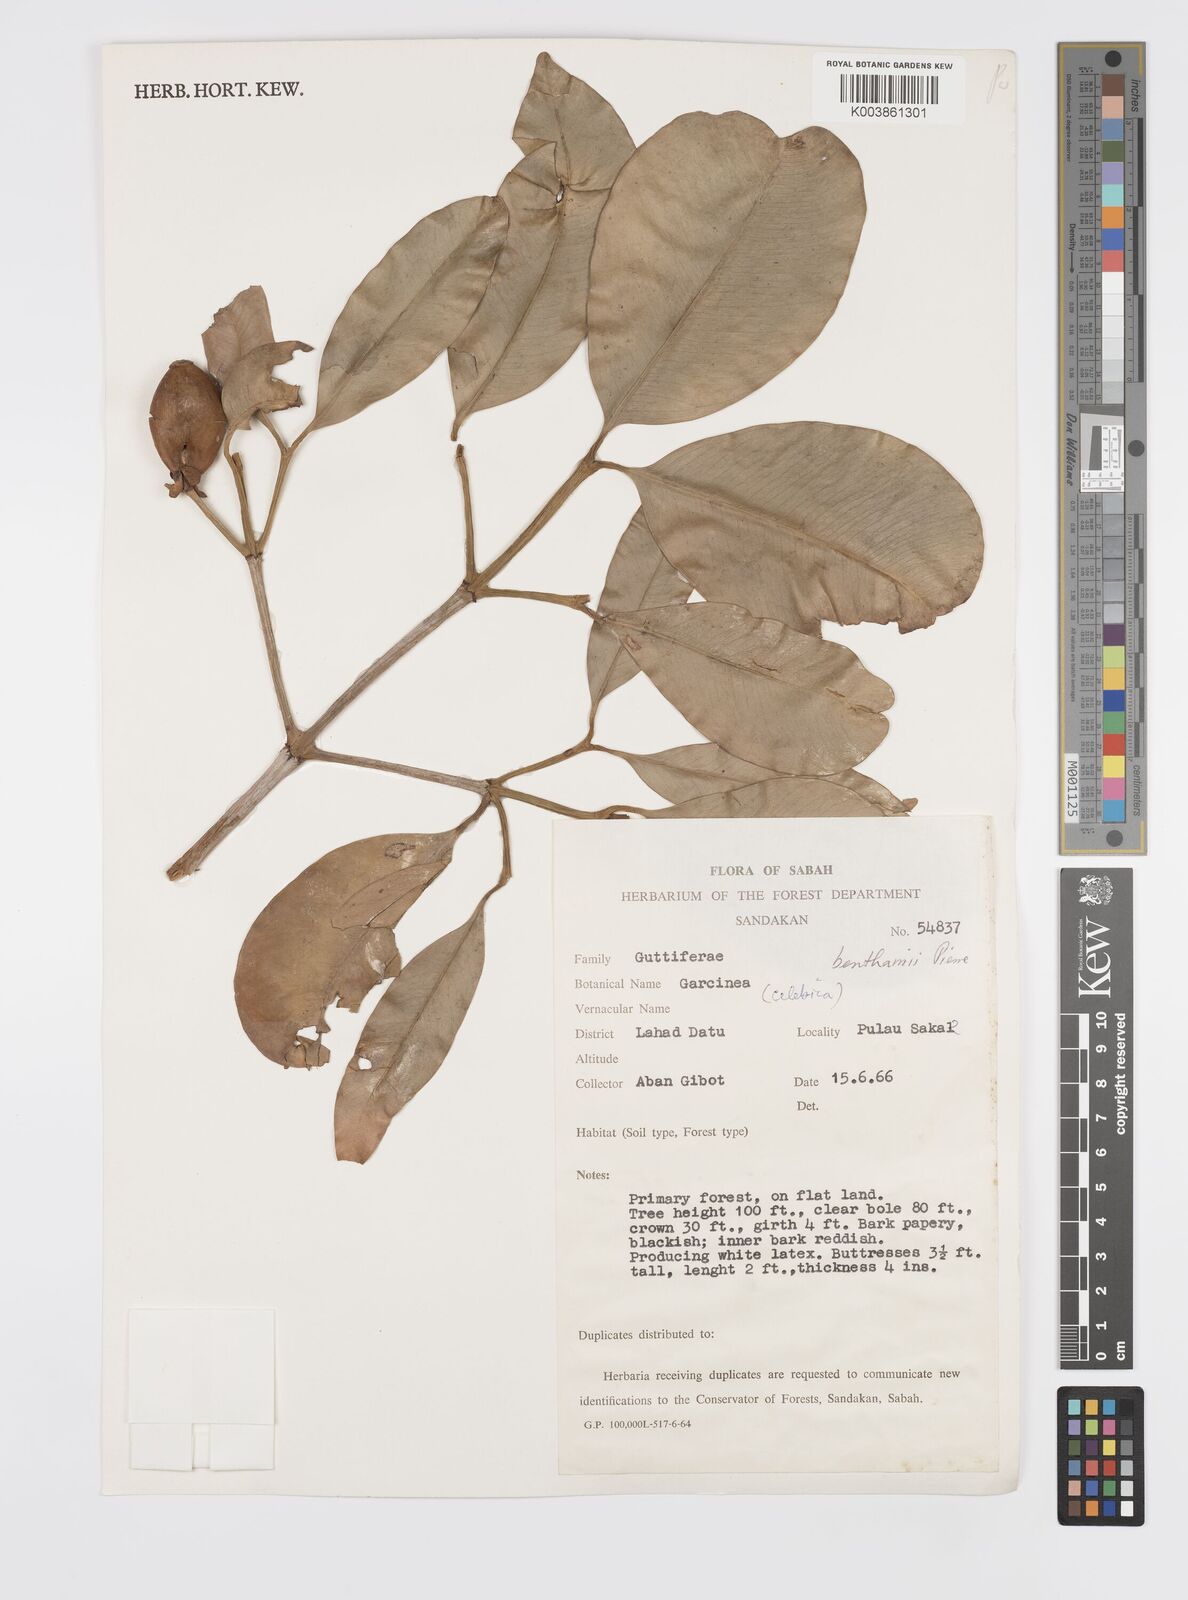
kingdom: Plantae
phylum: Tracheophyta
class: Magnoliopsida
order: Malpighiales
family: Clusiaceae
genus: Garcinia
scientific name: Garcinia sangudsangud
